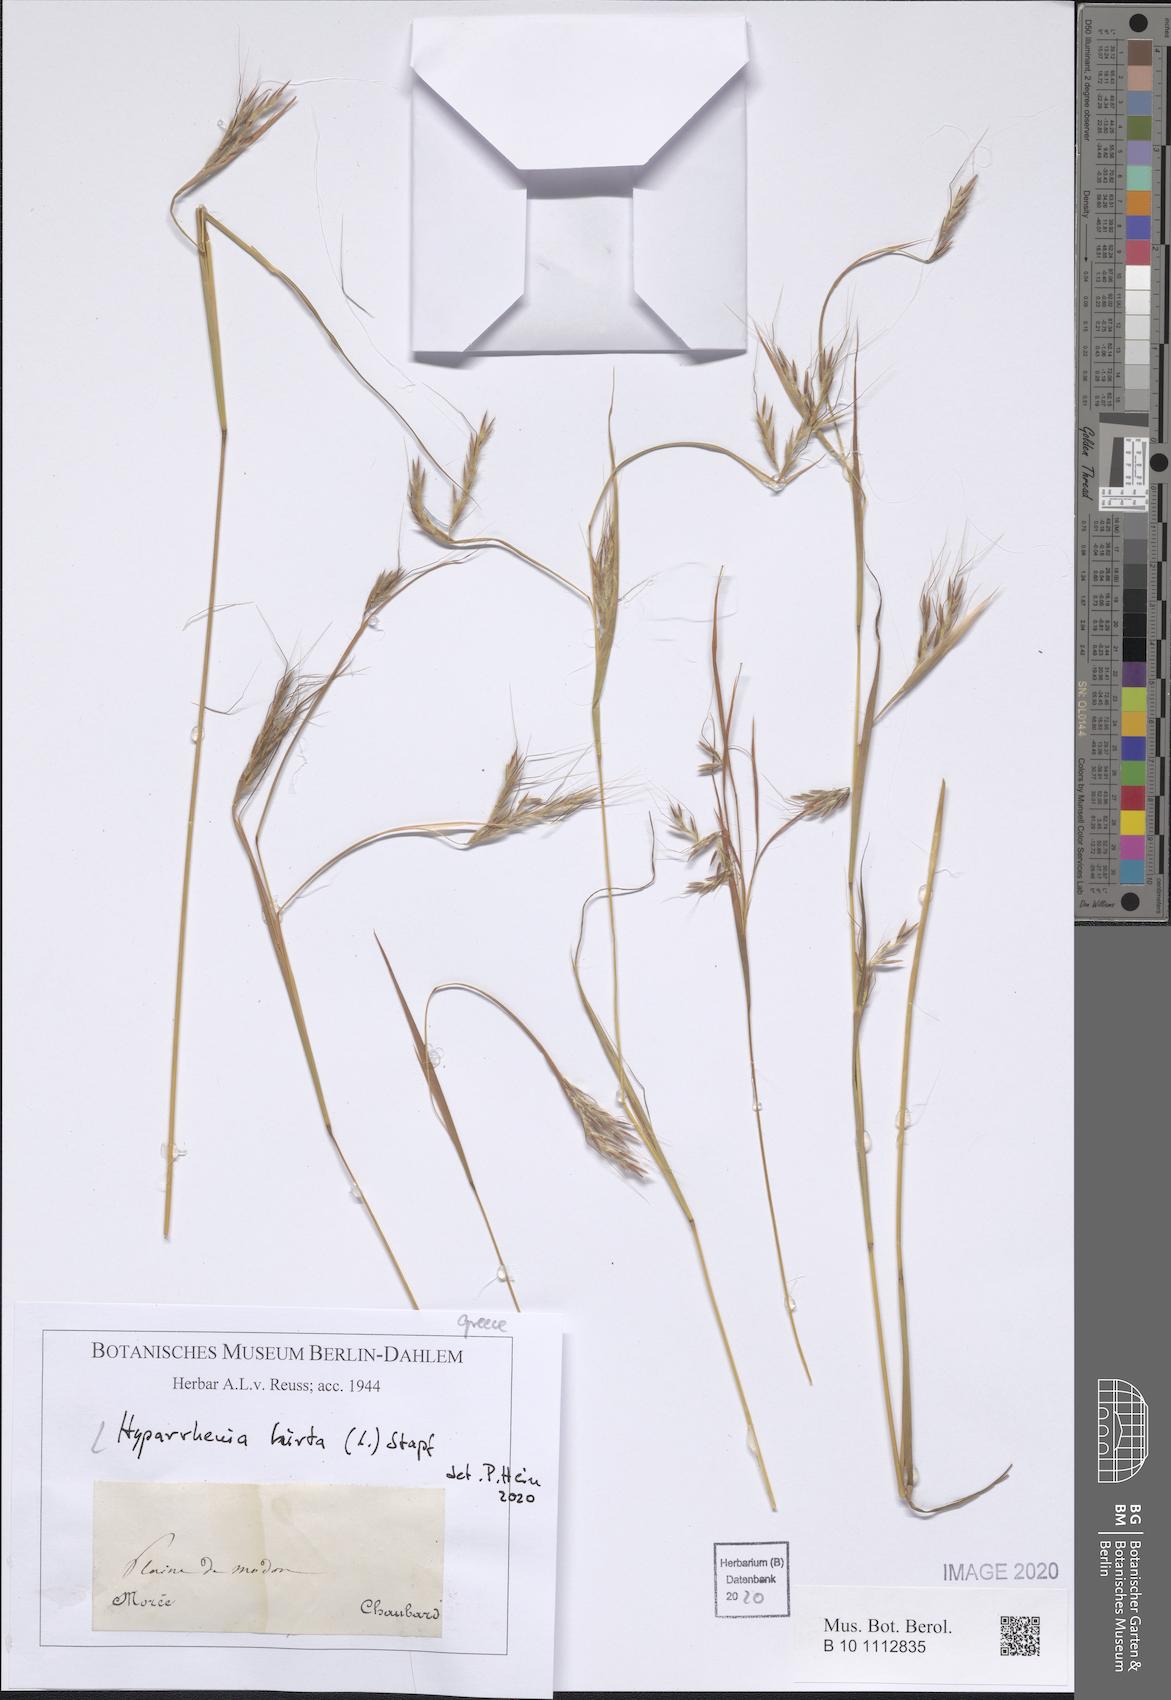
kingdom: Plantae
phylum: Tracheophyta
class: Liliopsida
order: Poales
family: Poaceae
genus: Hyparrhenia
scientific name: Hyparrhenia hirta
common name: Thatching grass
